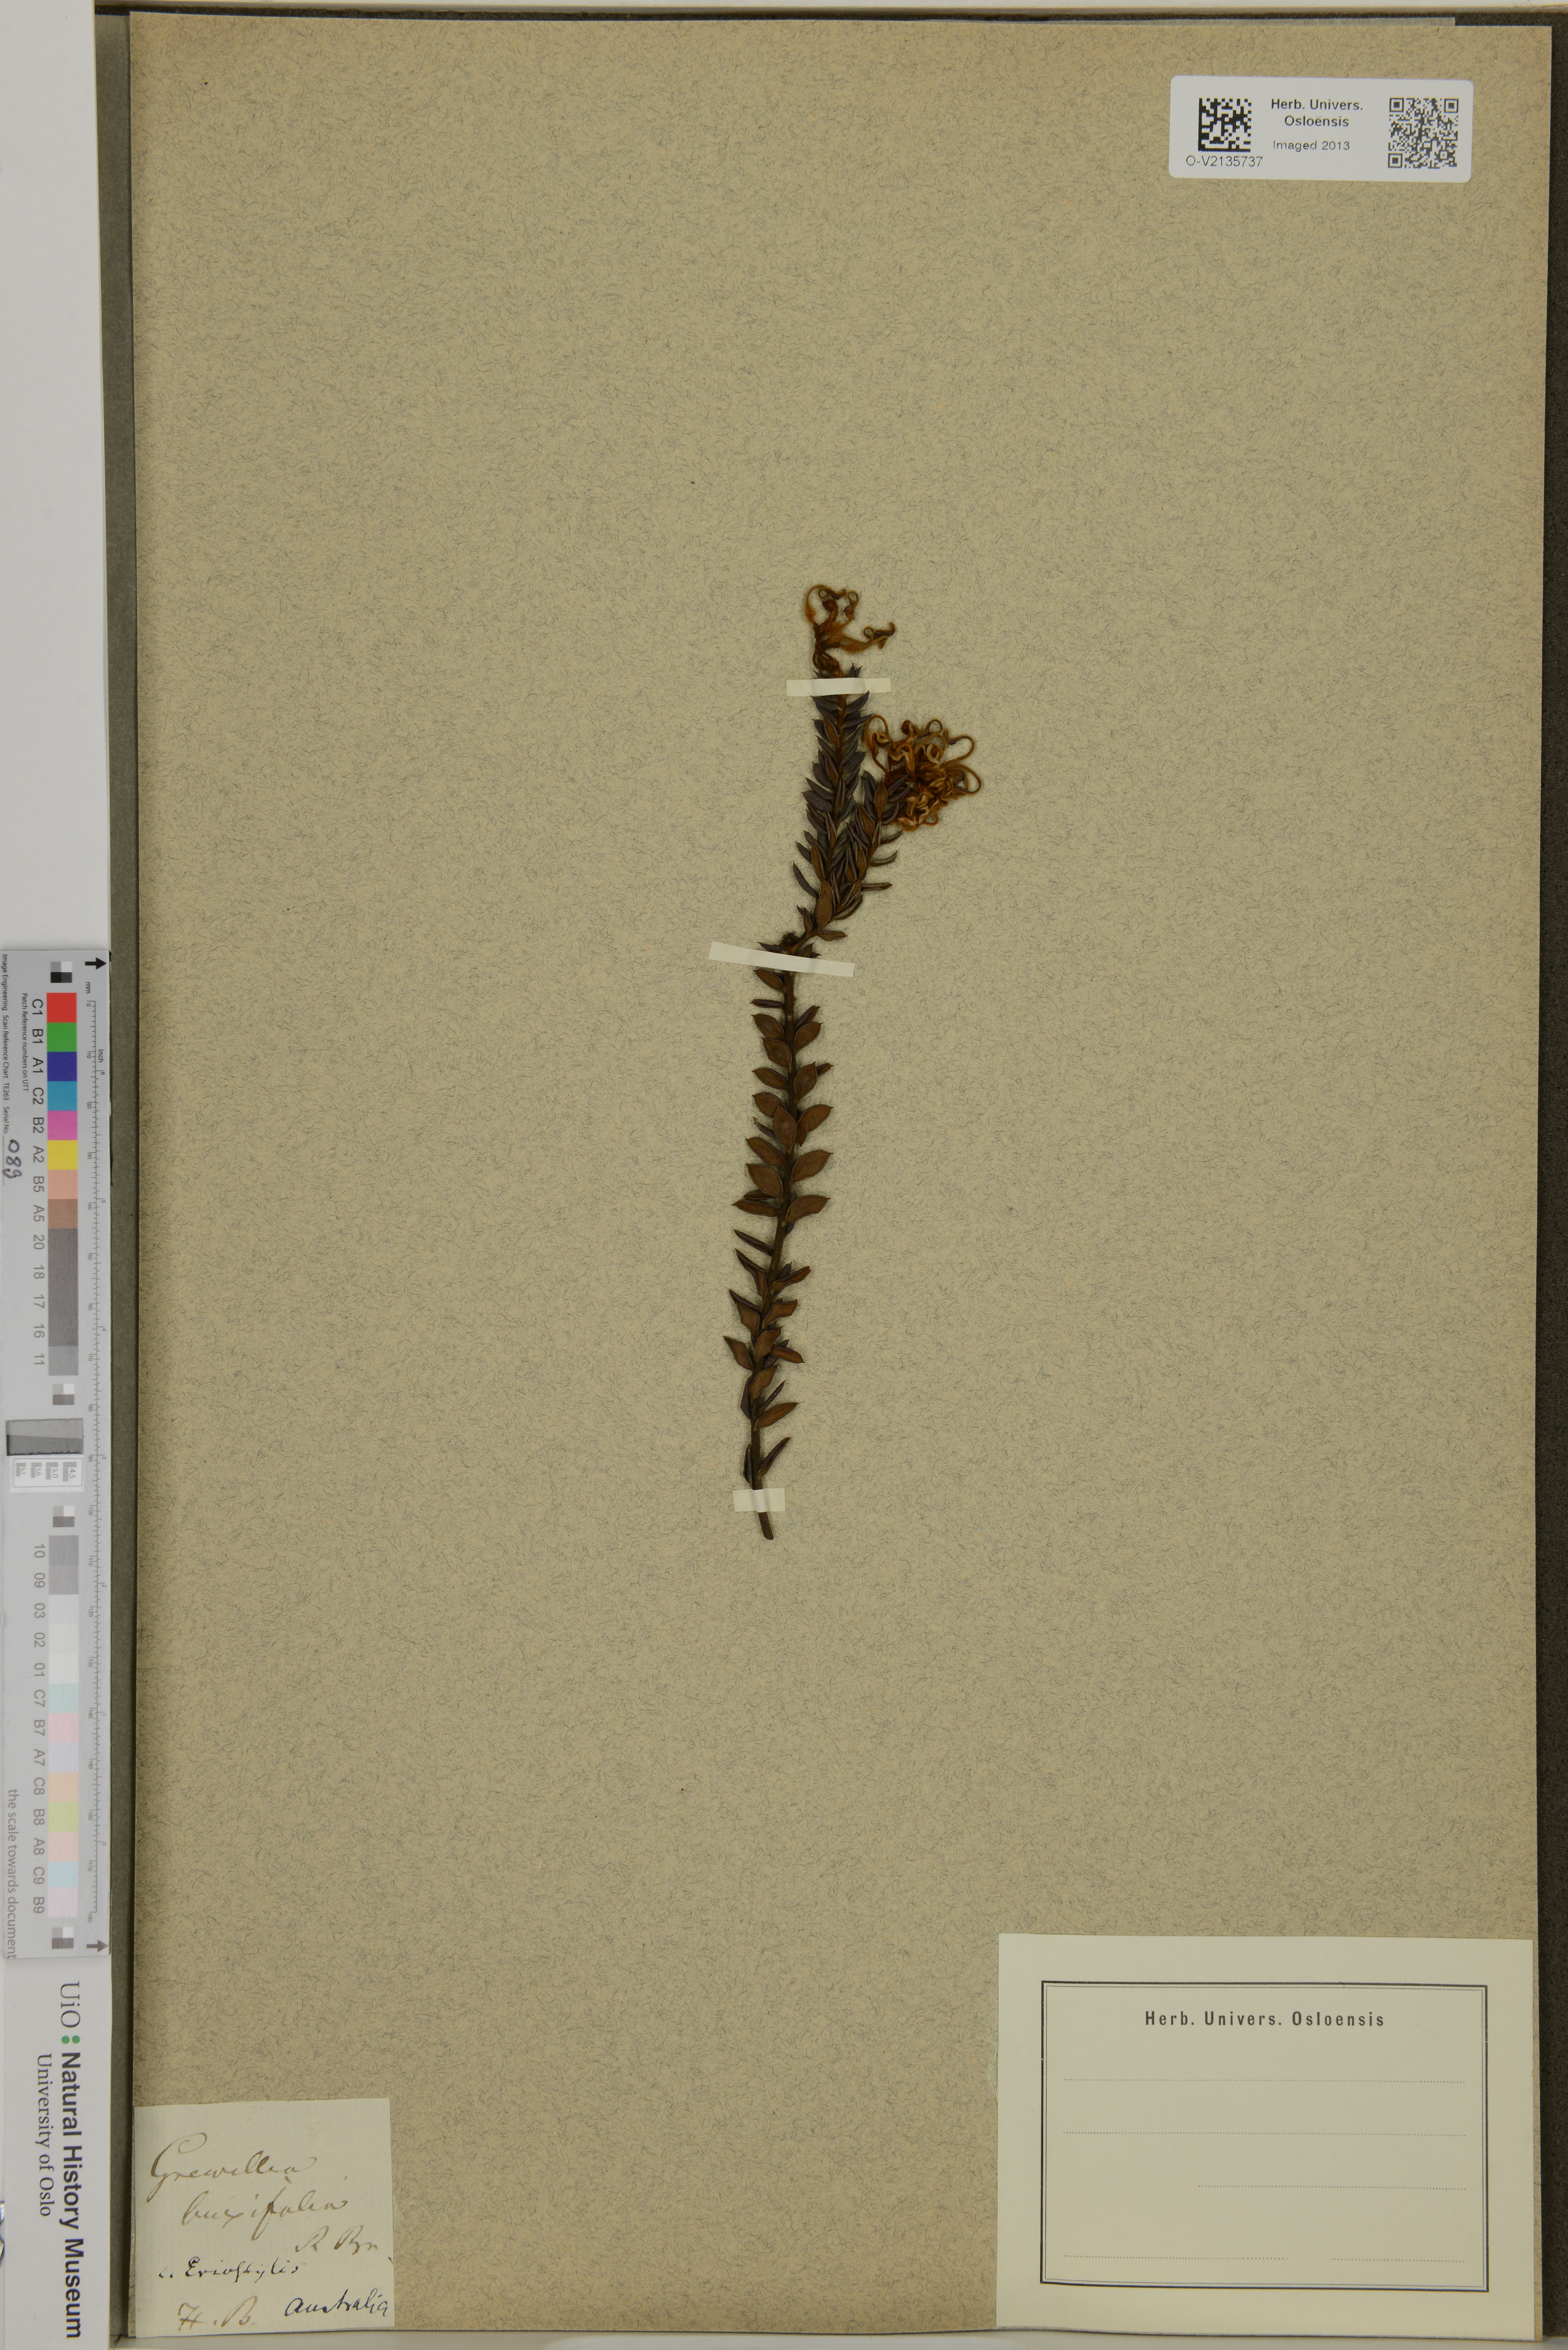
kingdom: Plantae
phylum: Tracheophyta
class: Magnoliopsida
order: Proteales
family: Proteaceae
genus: Grevillea
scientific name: Grevillea buxifolia
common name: Grey spiderflower
